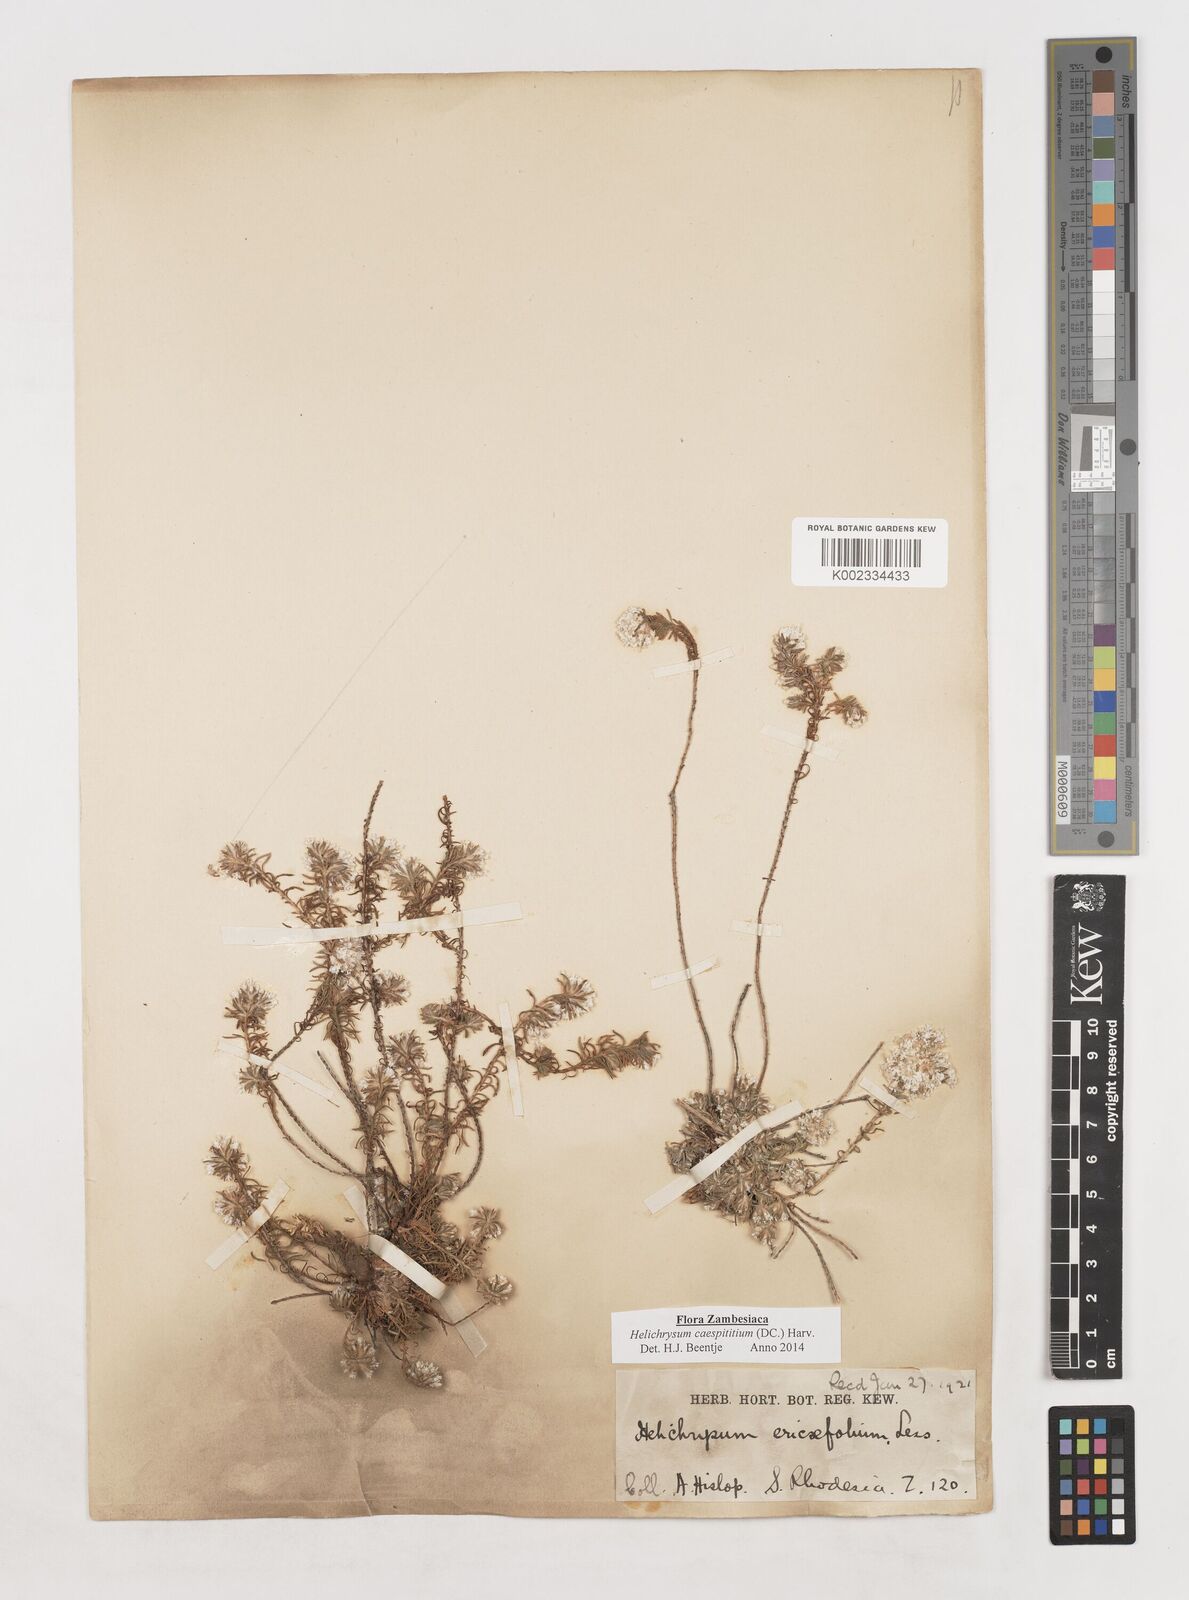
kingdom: Plantae
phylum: Tracheophyta
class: Magnoliopsida
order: Asterales
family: Asteraceae
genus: Helichrysum
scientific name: Helichrysum caespititium
